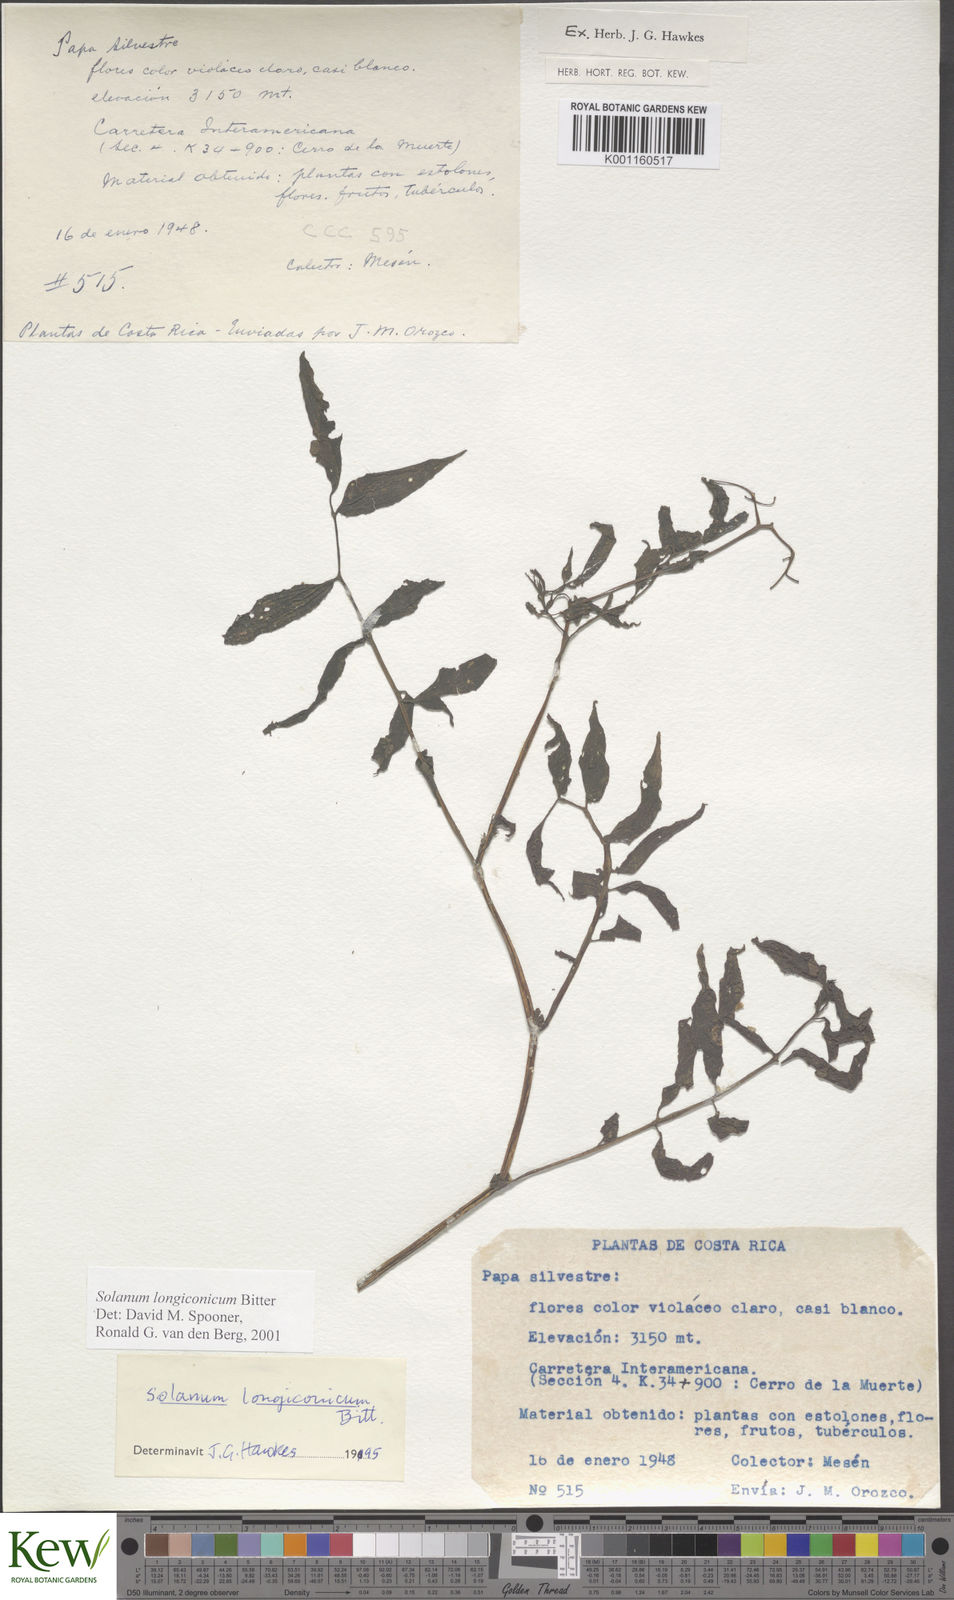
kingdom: Plantae
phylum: Tracheophyta
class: Magnoliopsida
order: Solanales
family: Solanaceae
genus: Solanum
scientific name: Solanum longiconicum
